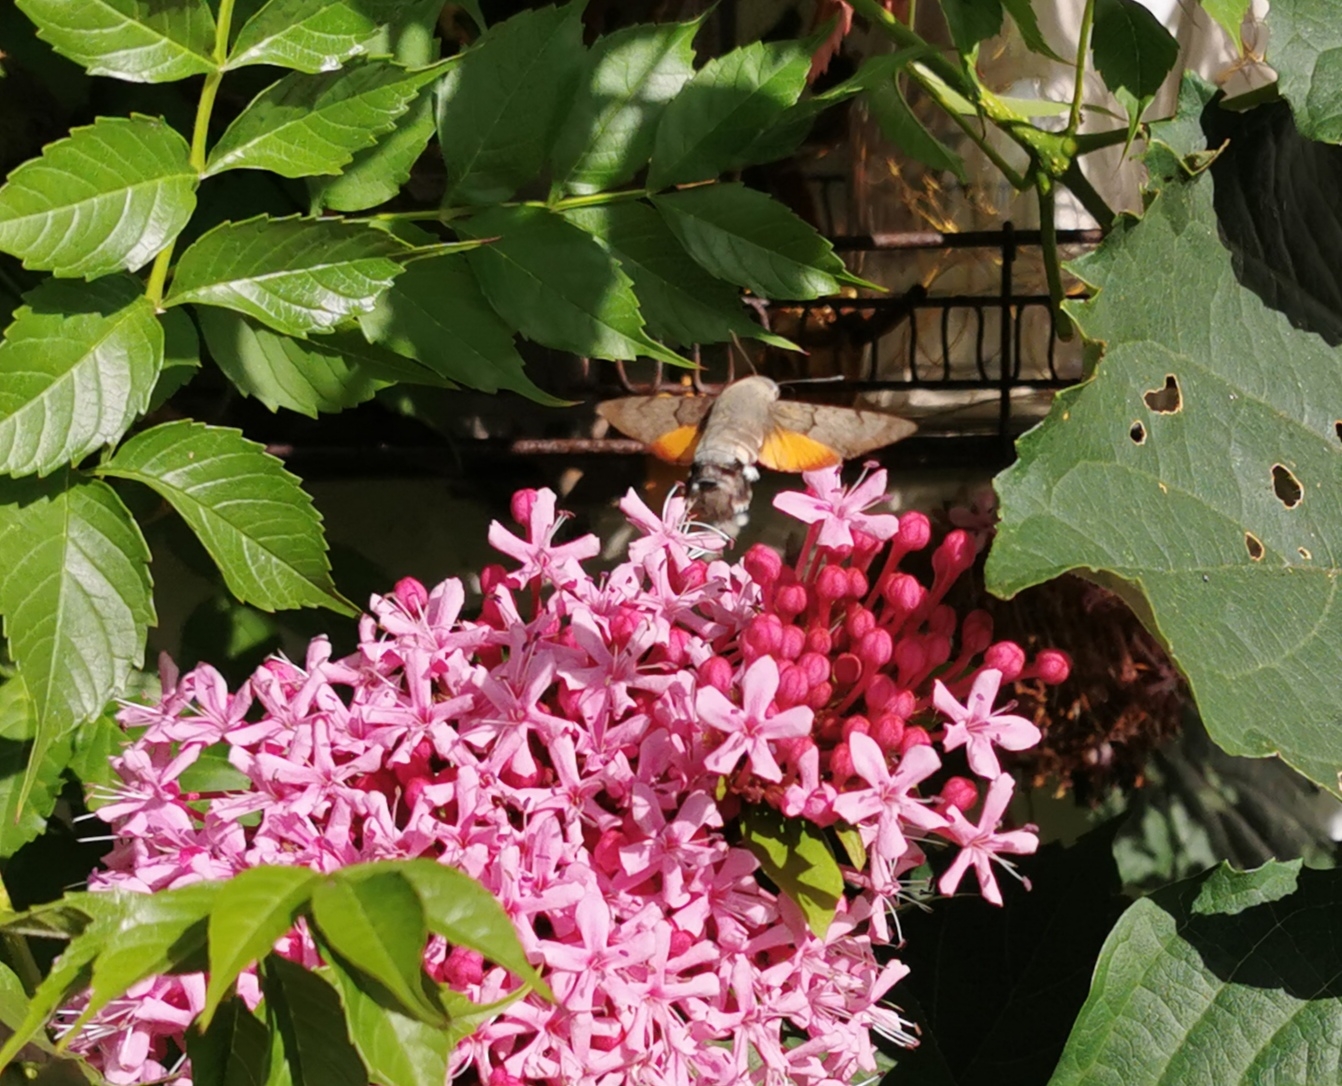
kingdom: Animalia
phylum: Arthropoda
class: Insecta
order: Lepidoptera
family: Sphingidae
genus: Macroglossum
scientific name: Macroglossum stellatarum
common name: Duehale
